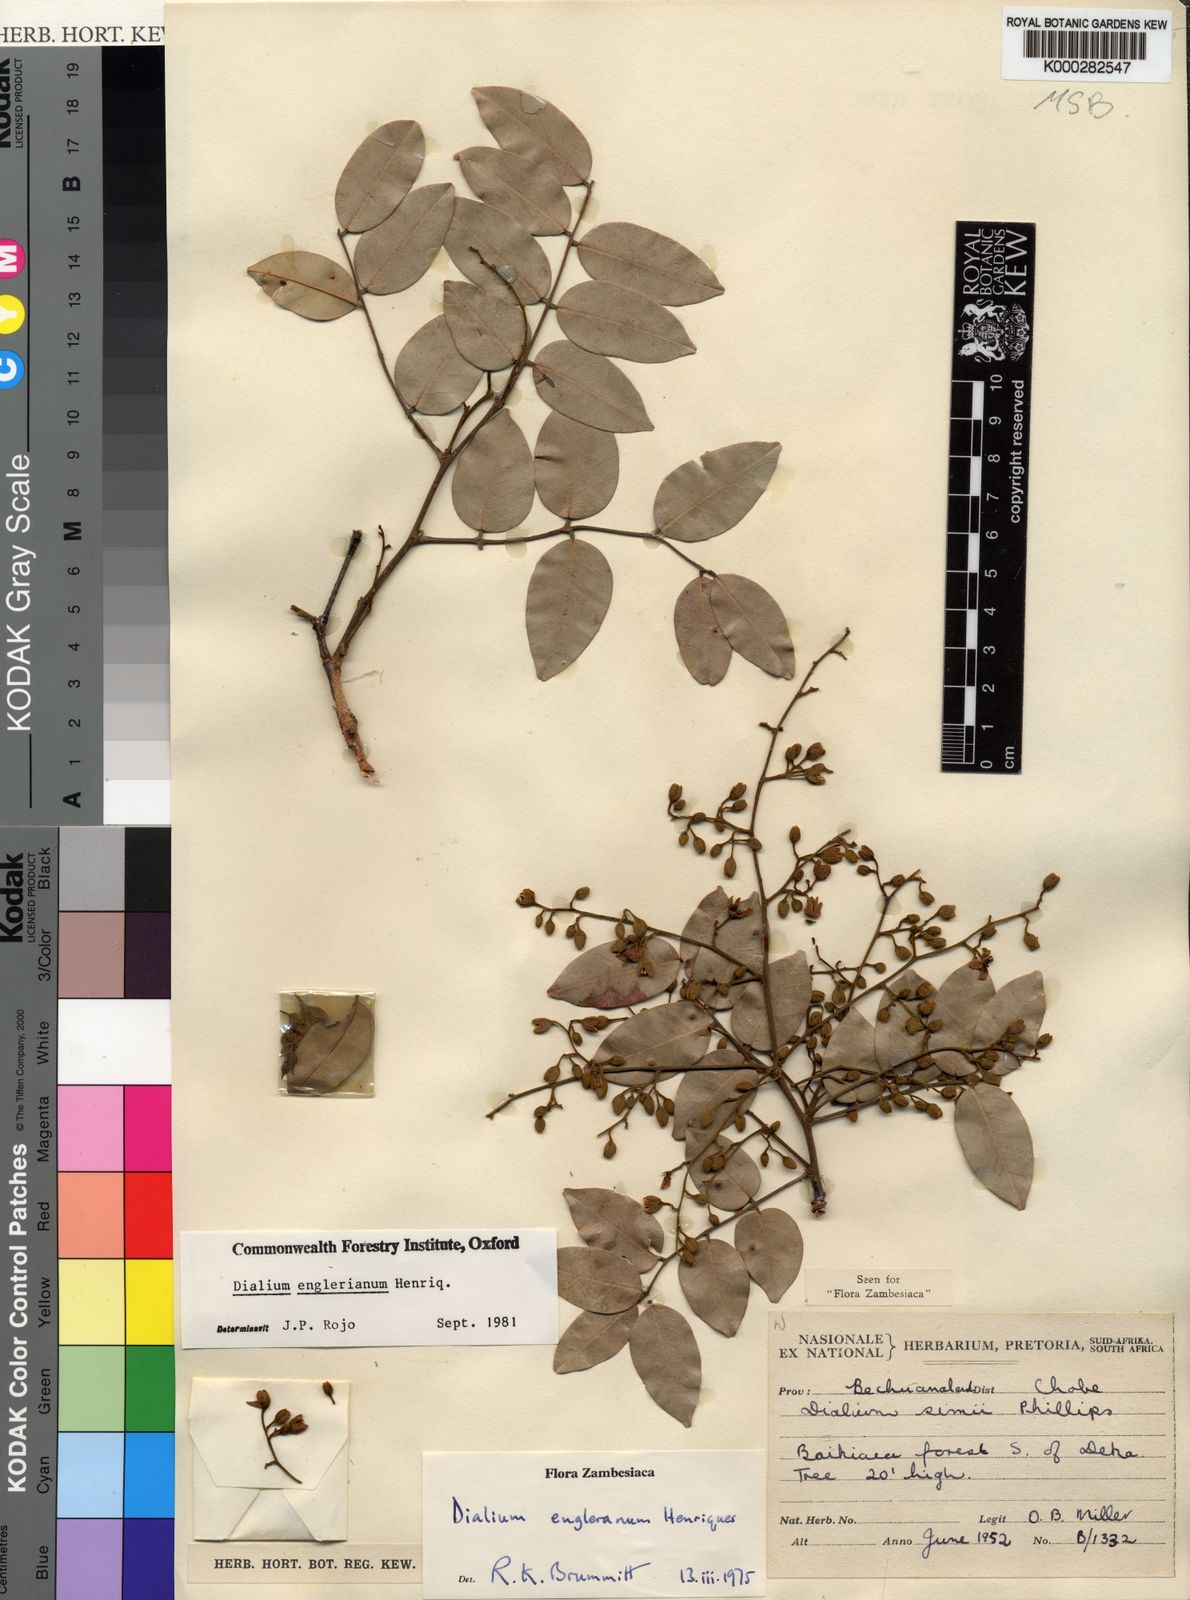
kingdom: Plantae
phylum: Tracheophyta
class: Magnoliopsida
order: Fabales
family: Fabaceae
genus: Dialium
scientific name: Dialium englerianum
